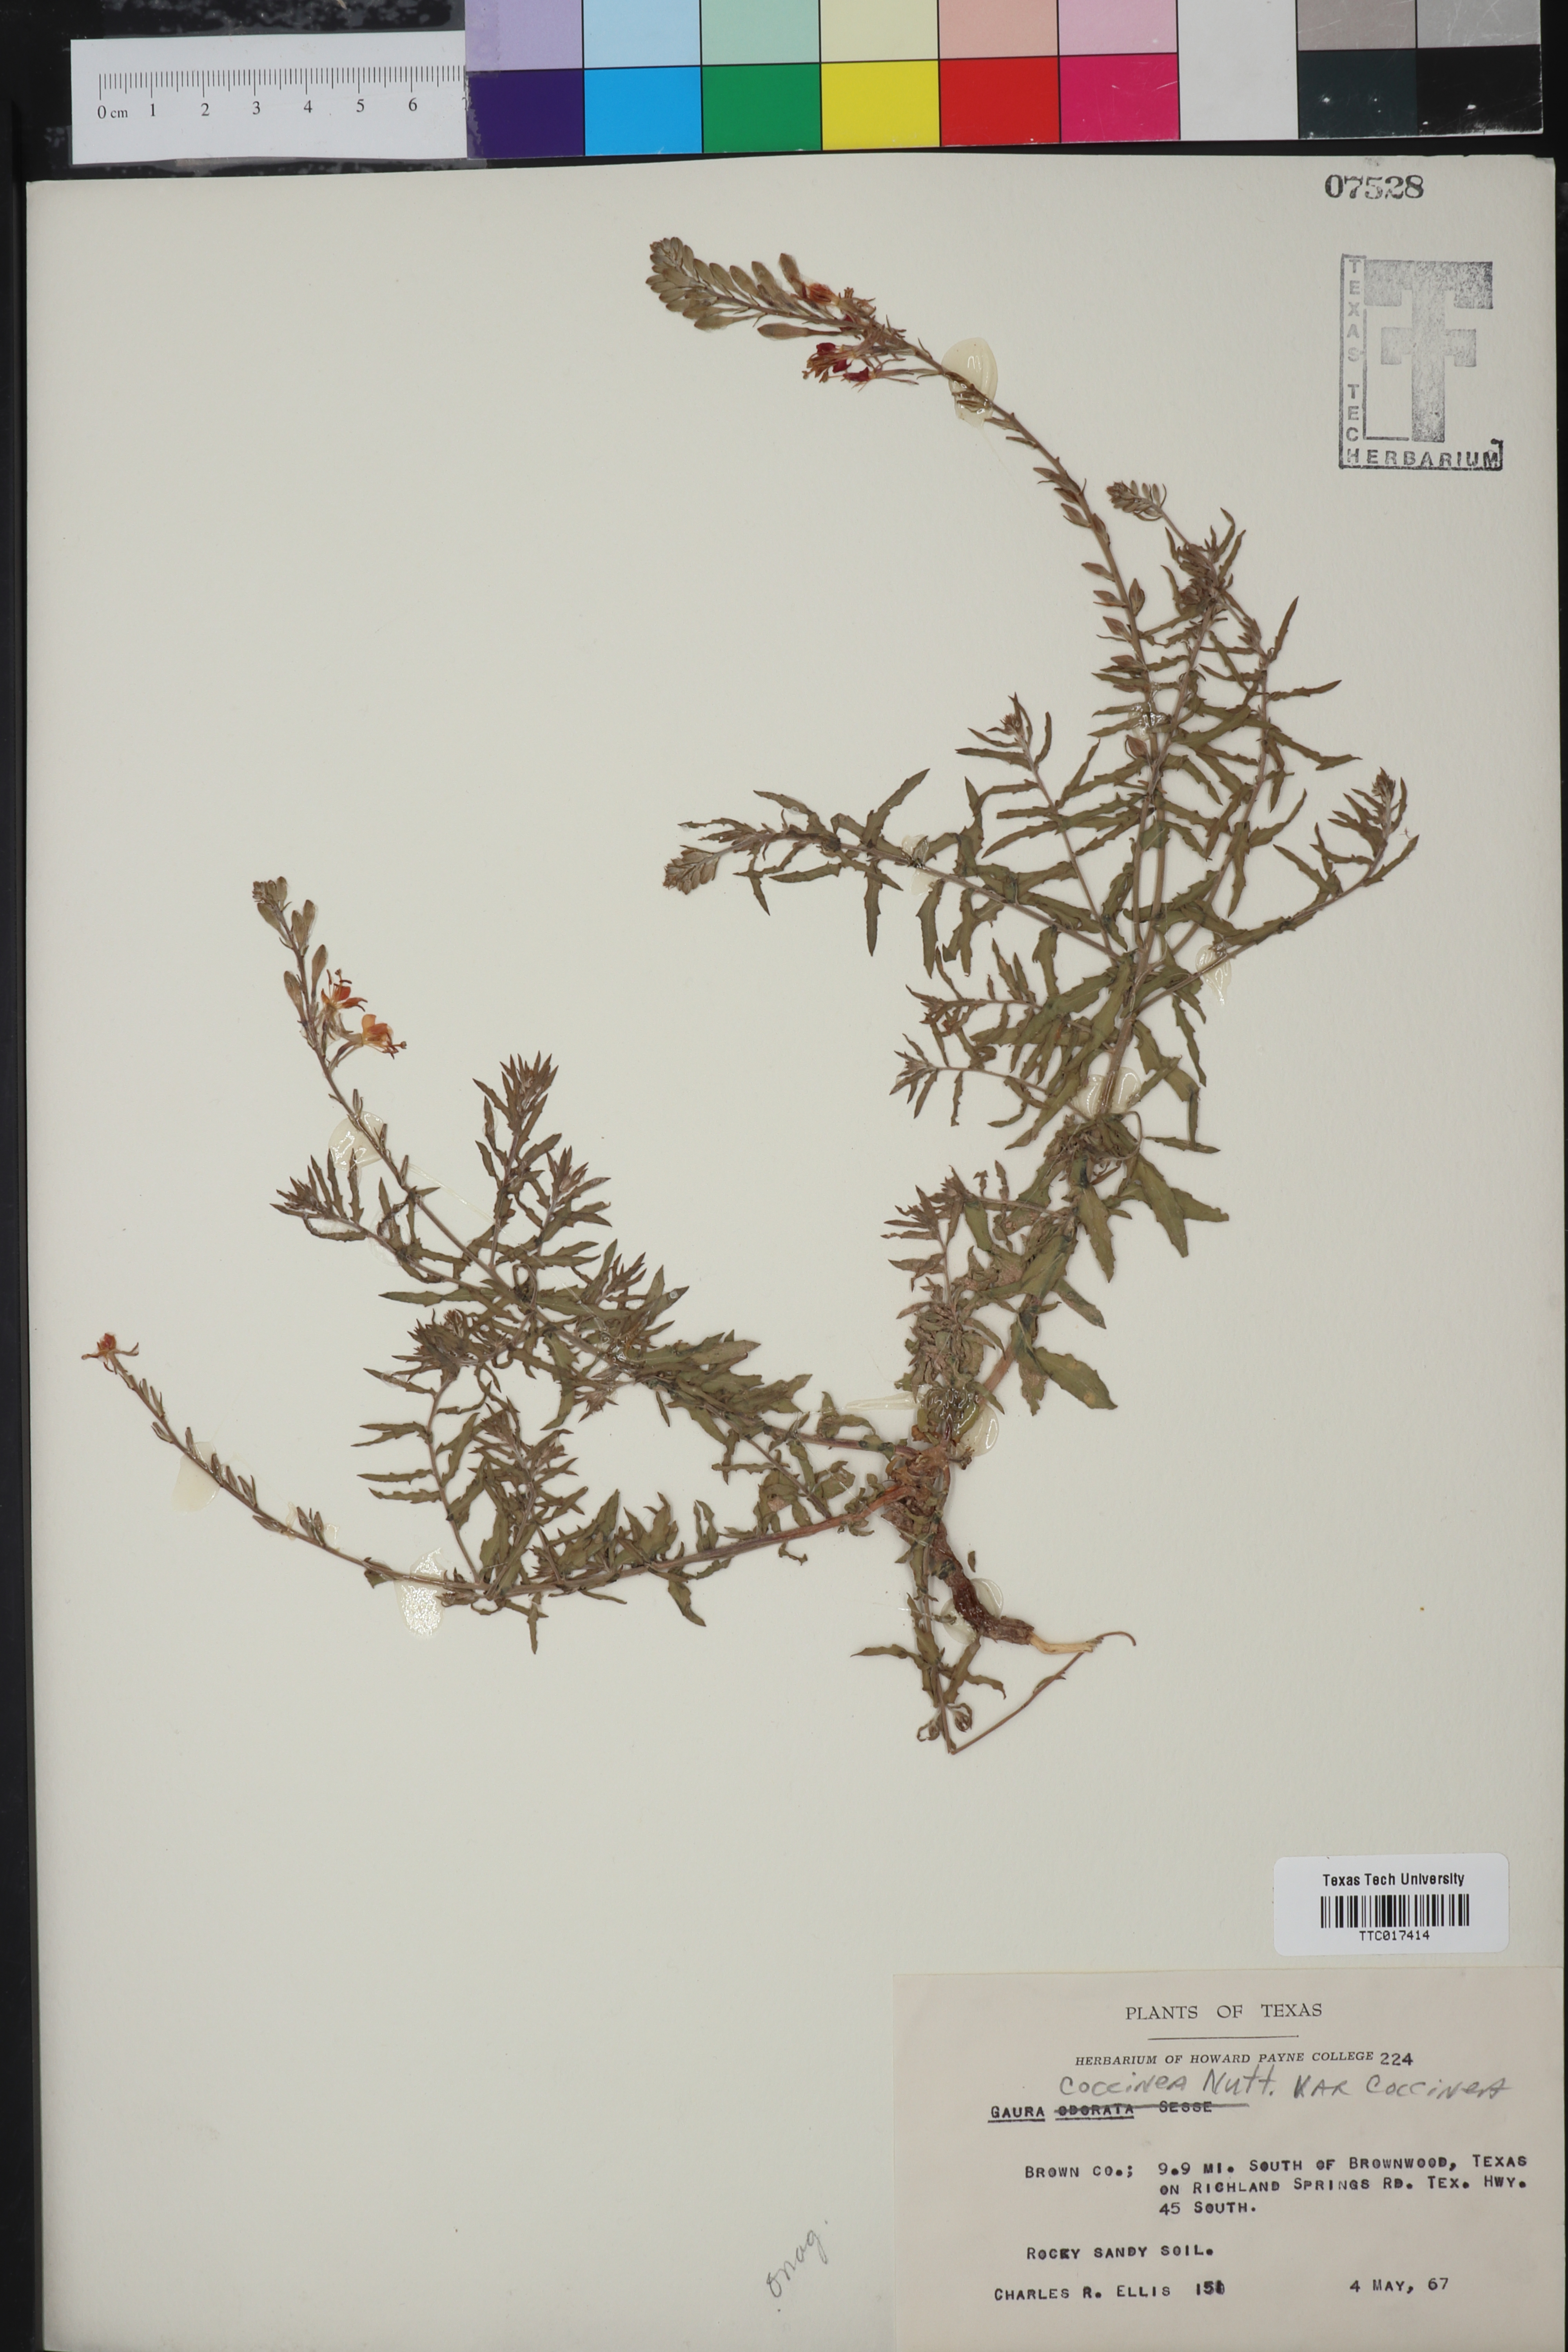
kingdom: Plantae
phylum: Tracheophyta
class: Magnoliopsida
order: Myrtales
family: Onagraceae
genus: Oenothera
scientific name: Oenothera suffrutescens
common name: Scarlet beeblossom
